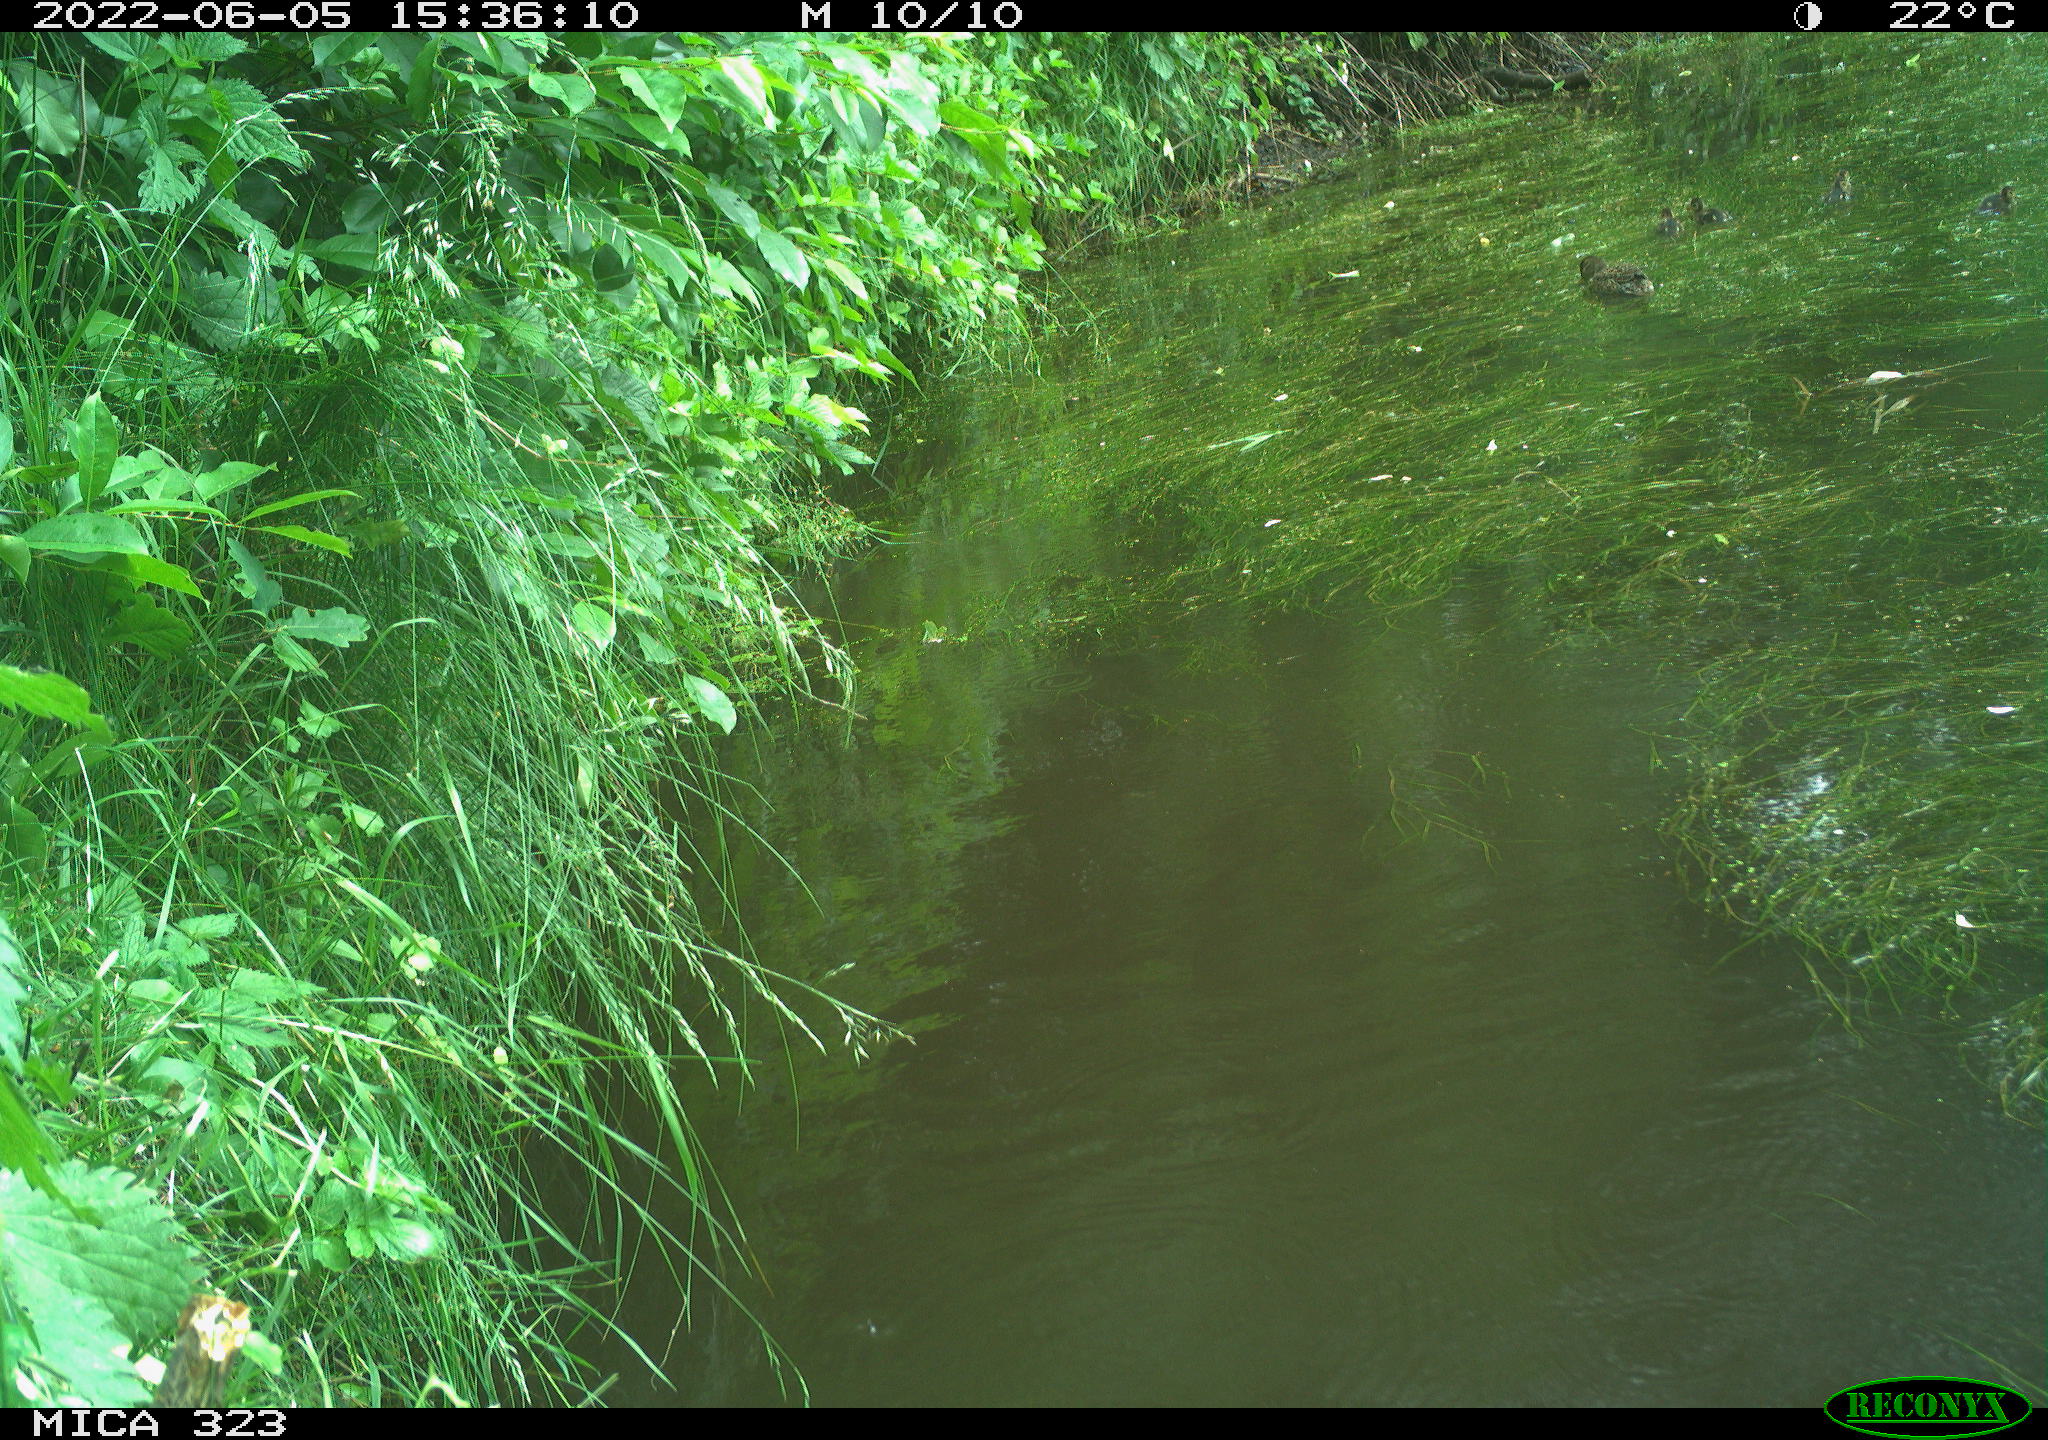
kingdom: Animalia
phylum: Chordata
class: Aves
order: Anseriformes
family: Anatidae
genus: Anas
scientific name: Anas platyrhynchos
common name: Mallard
